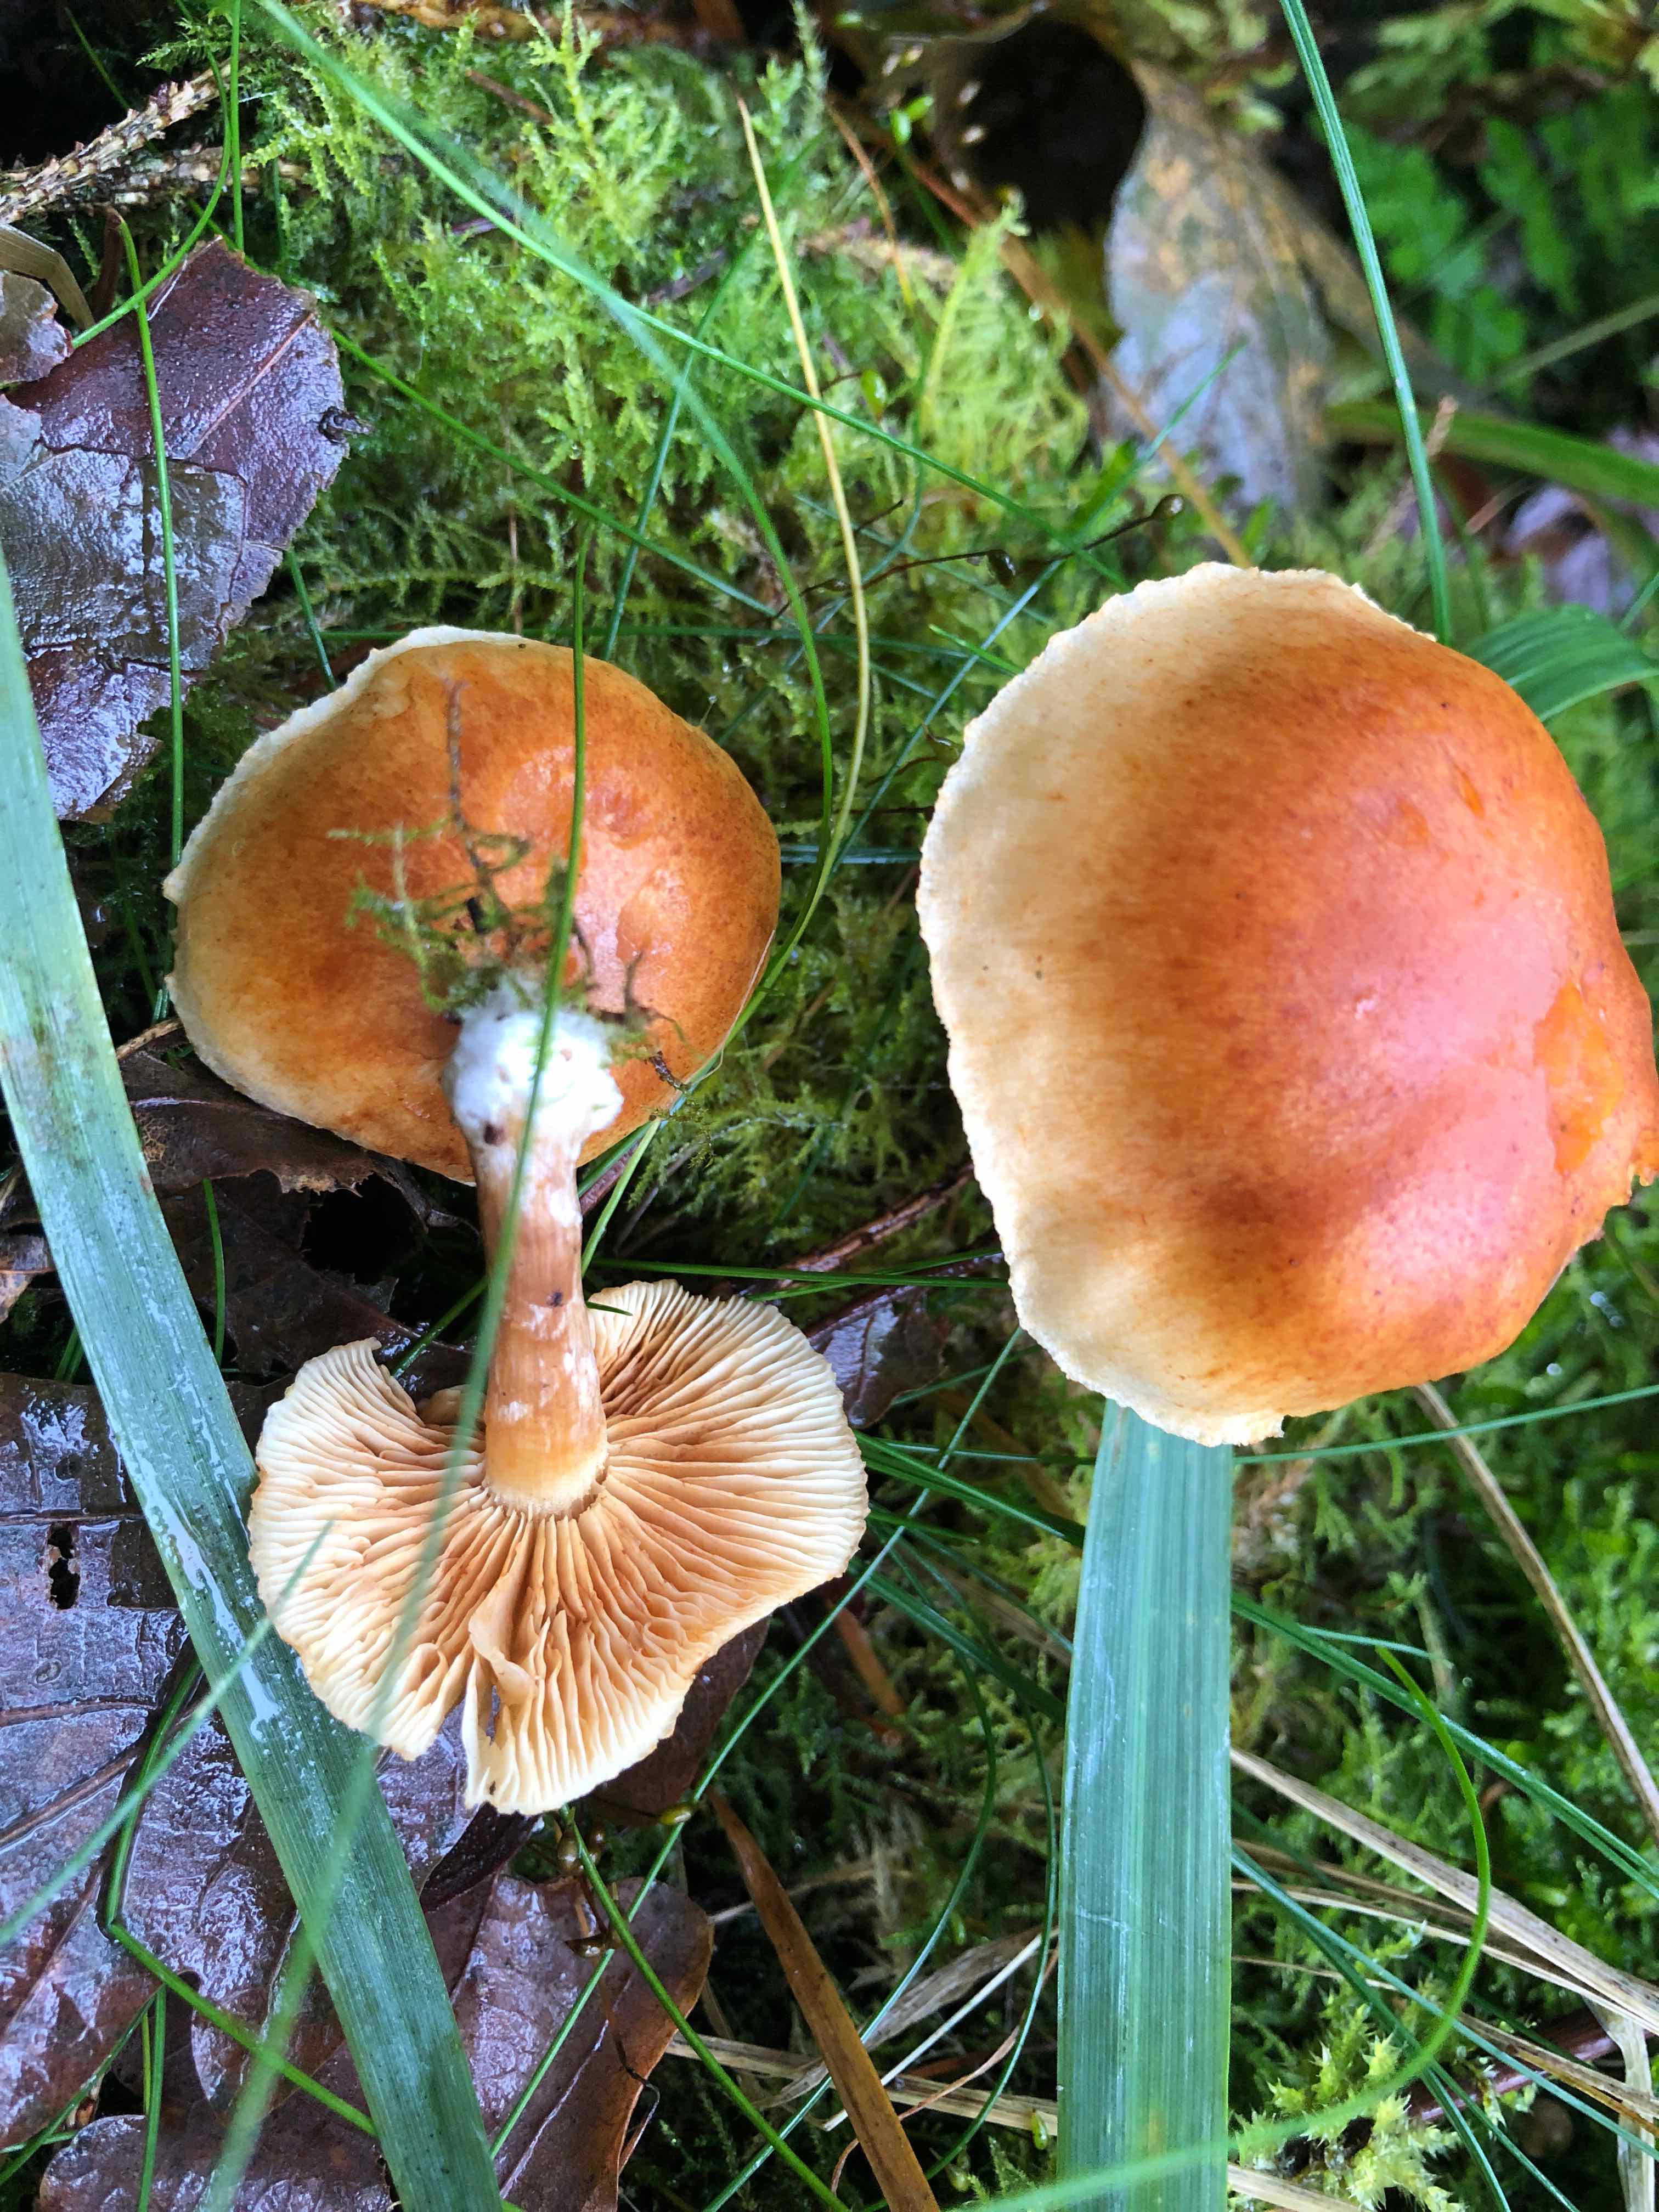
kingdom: Fungi
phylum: Basidiomycota
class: Agaricomycetes
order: Agaricales
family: Hymenogastraceae
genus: Gymnopilus
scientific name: Gymnopilus penetrans
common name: plettet flammehat
